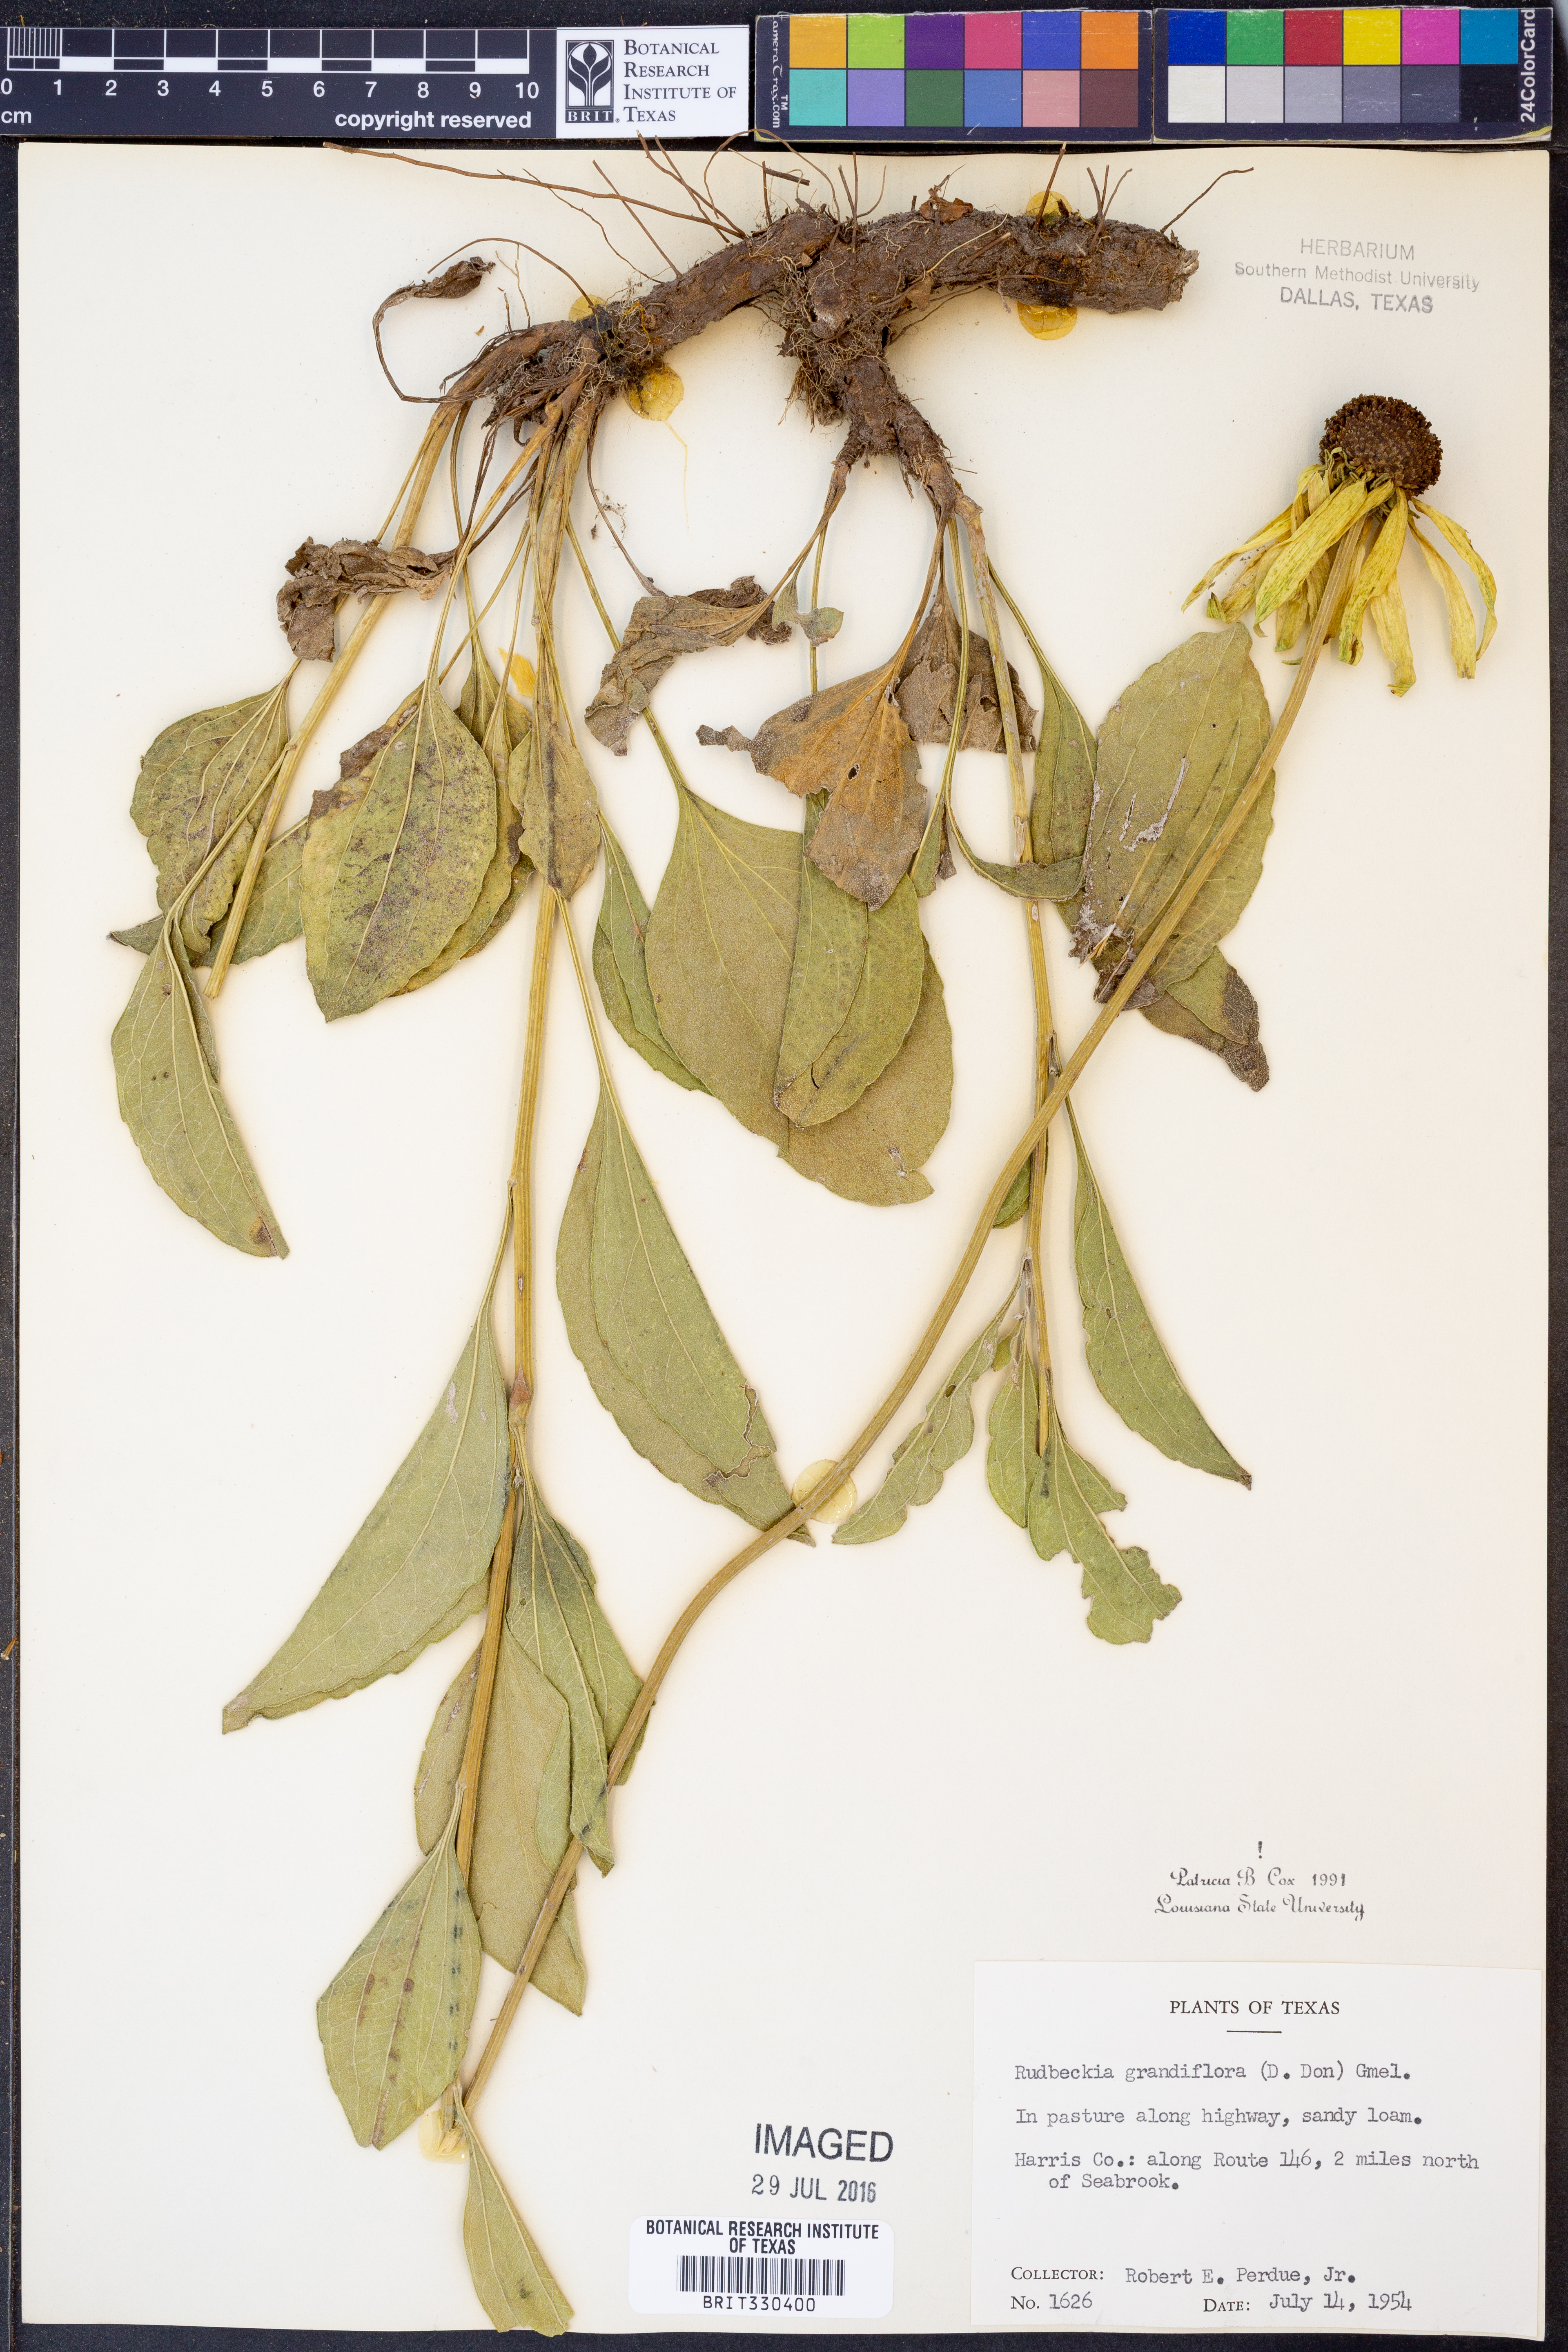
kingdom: Plantae
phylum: Tracheophyta
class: Magnoliopsida
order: Asterales
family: Asteraceae
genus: Rudbeckia
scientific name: Rudbeckia grandiflora
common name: Large-flowered coneflower
